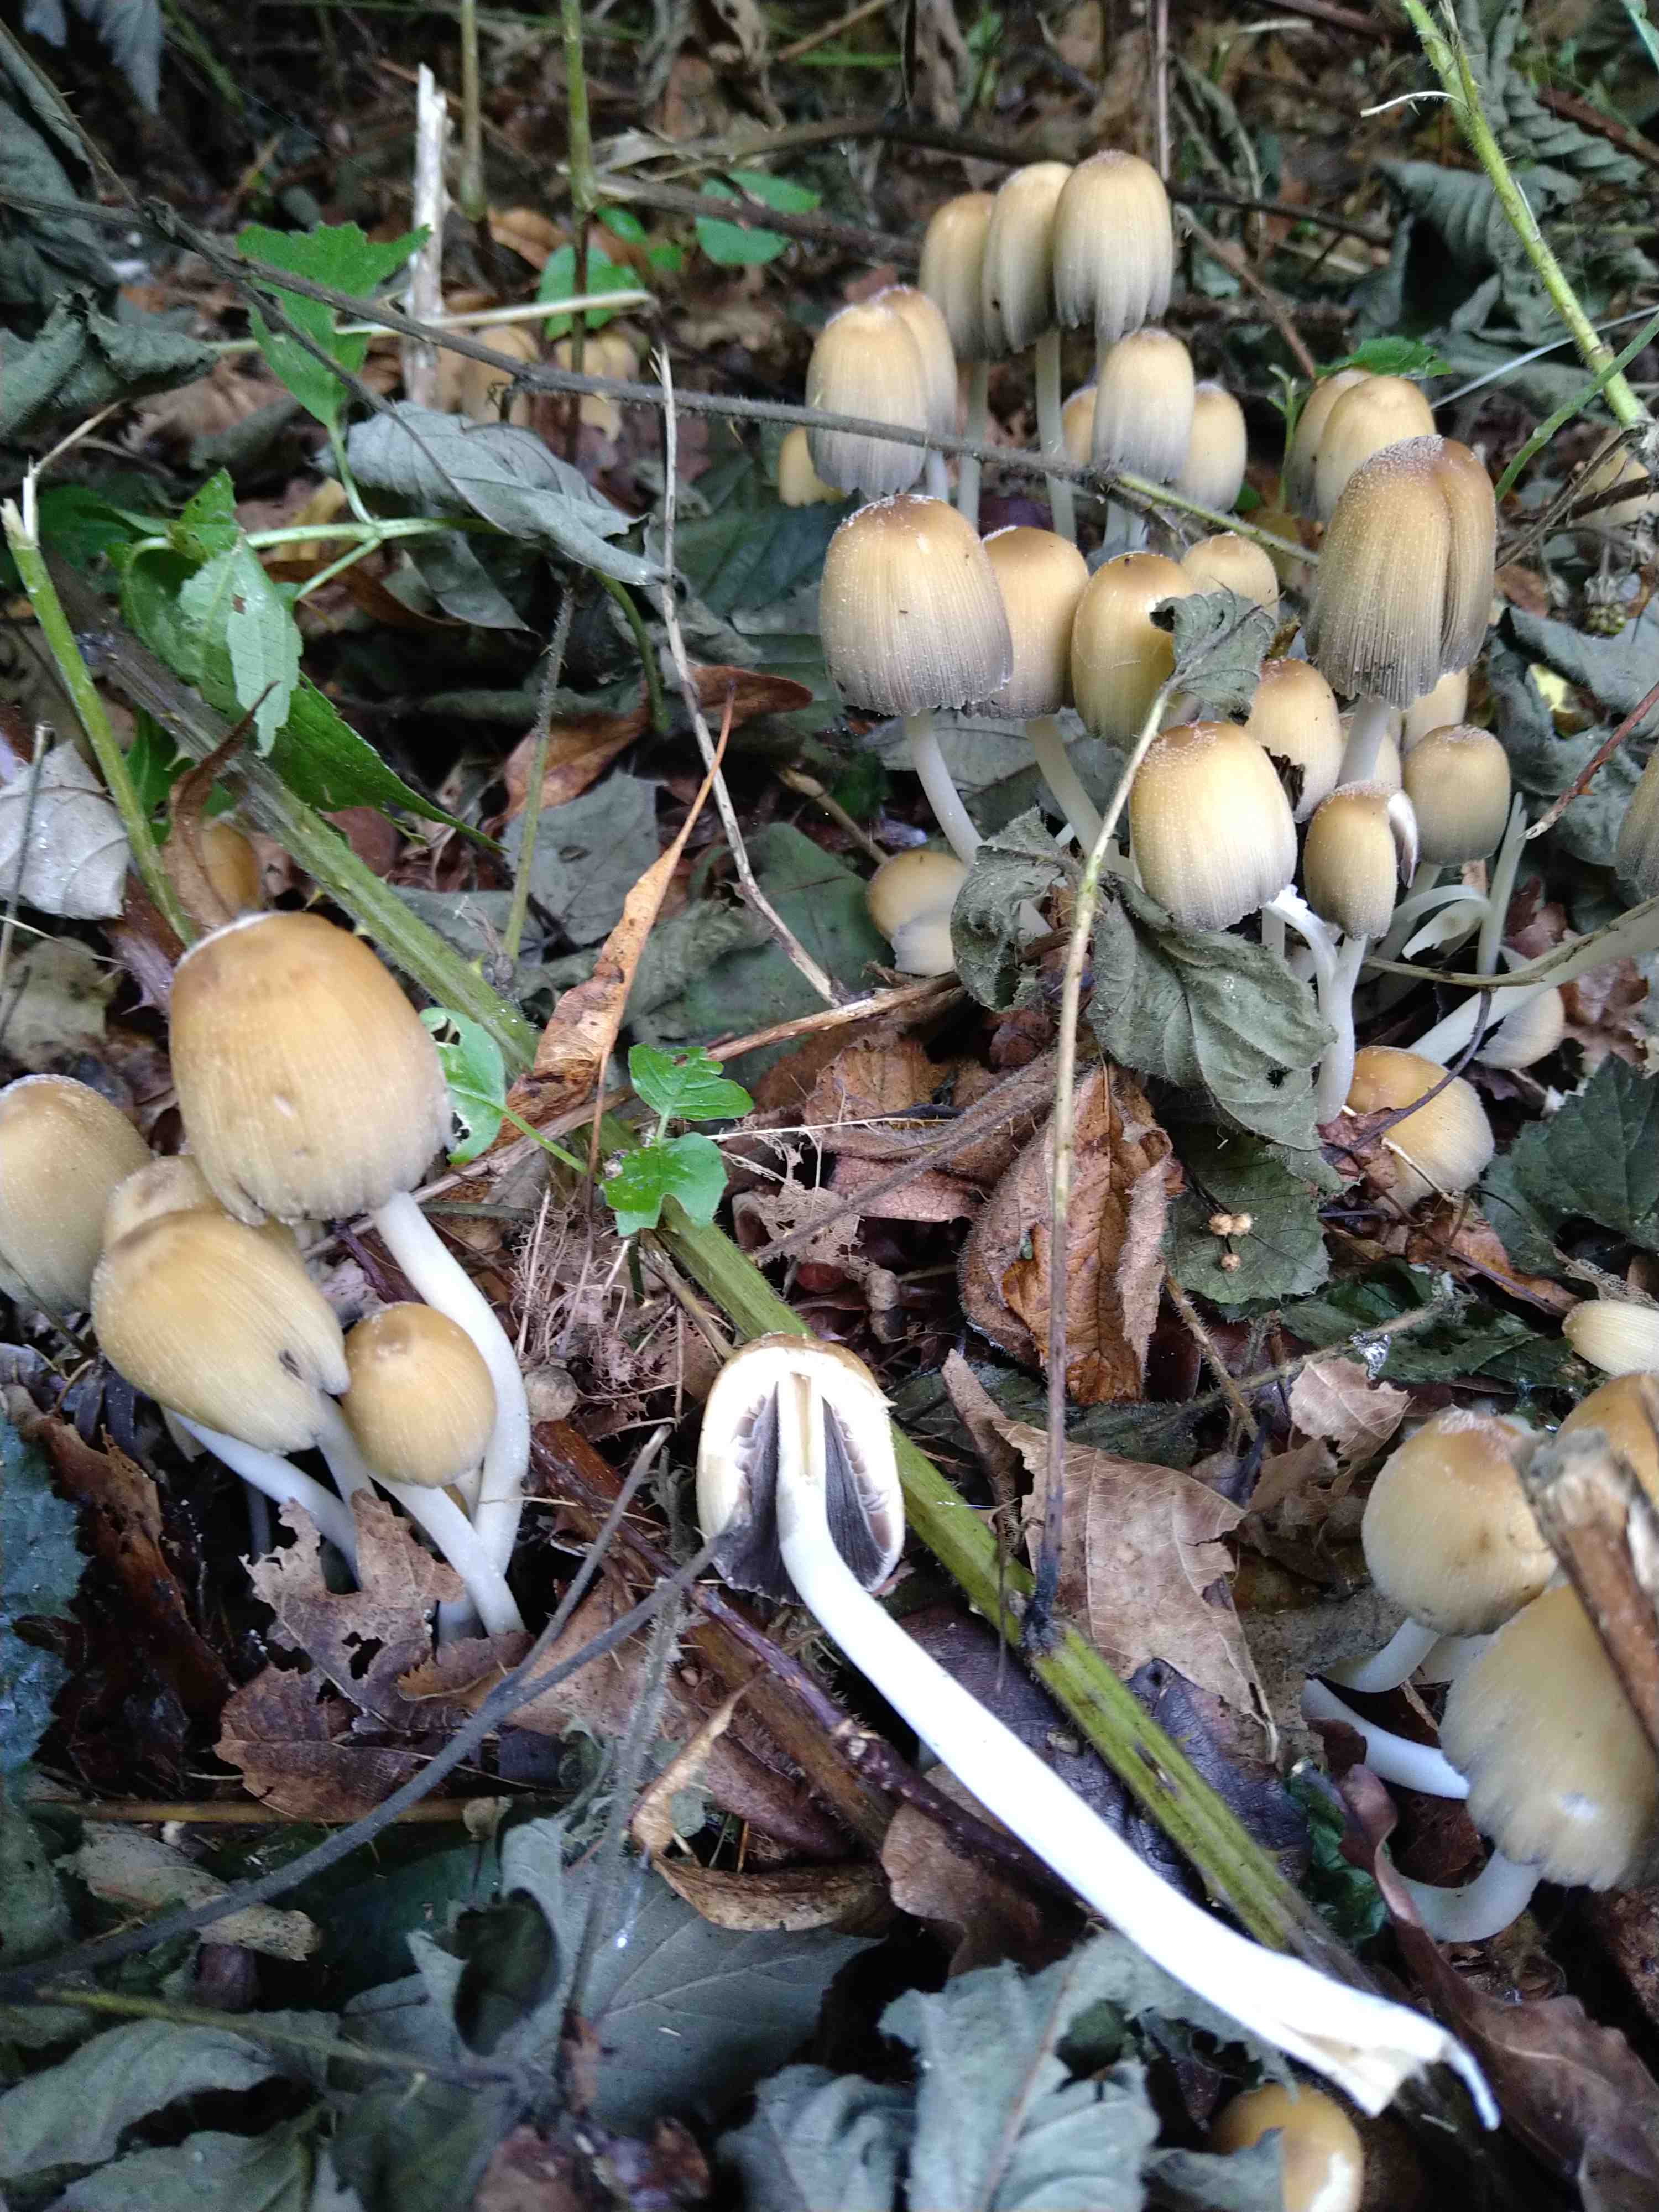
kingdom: Fungi
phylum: Basidiomycota
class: Agaricomycetes
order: Agaricales
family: Psathyrellaceae
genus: Coprinellus
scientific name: Coprinellus micaceus
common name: glimmer-blækhat
